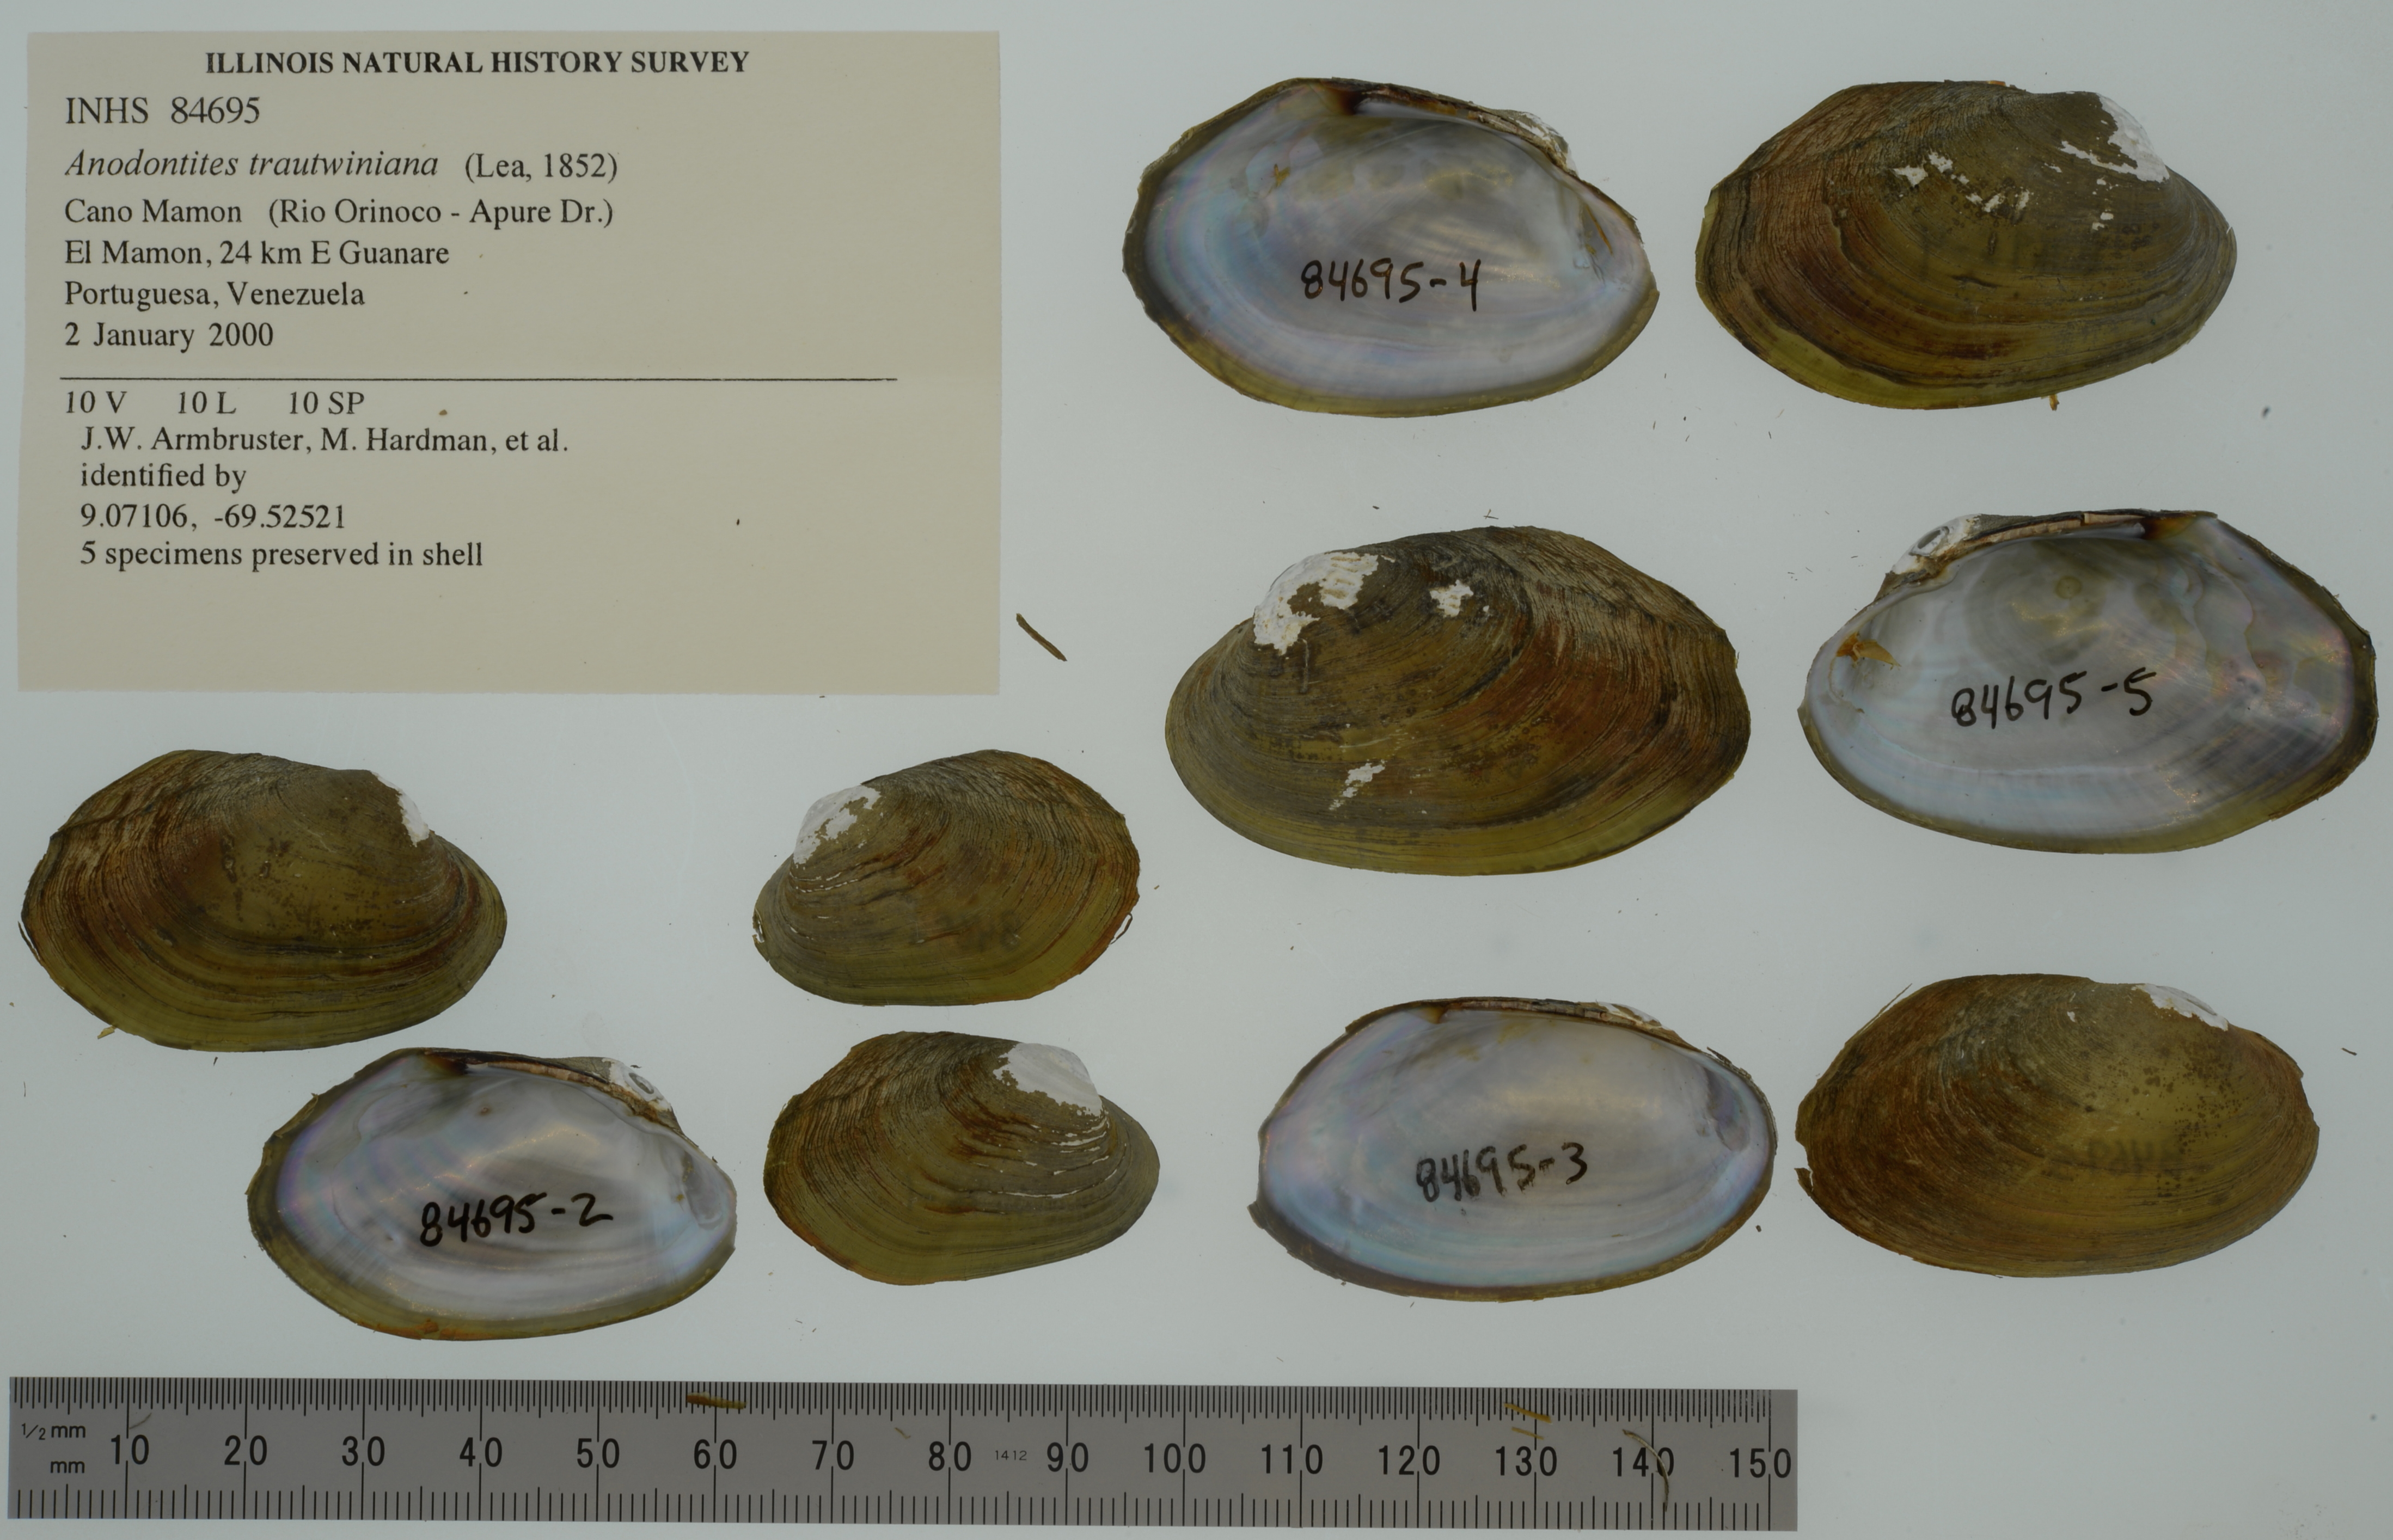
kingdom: Animalia
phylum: Mollusca
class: Bivalvia
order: Unionida
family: Mycetopodidae
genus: Anodontites
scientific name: Anodontites tortilis
